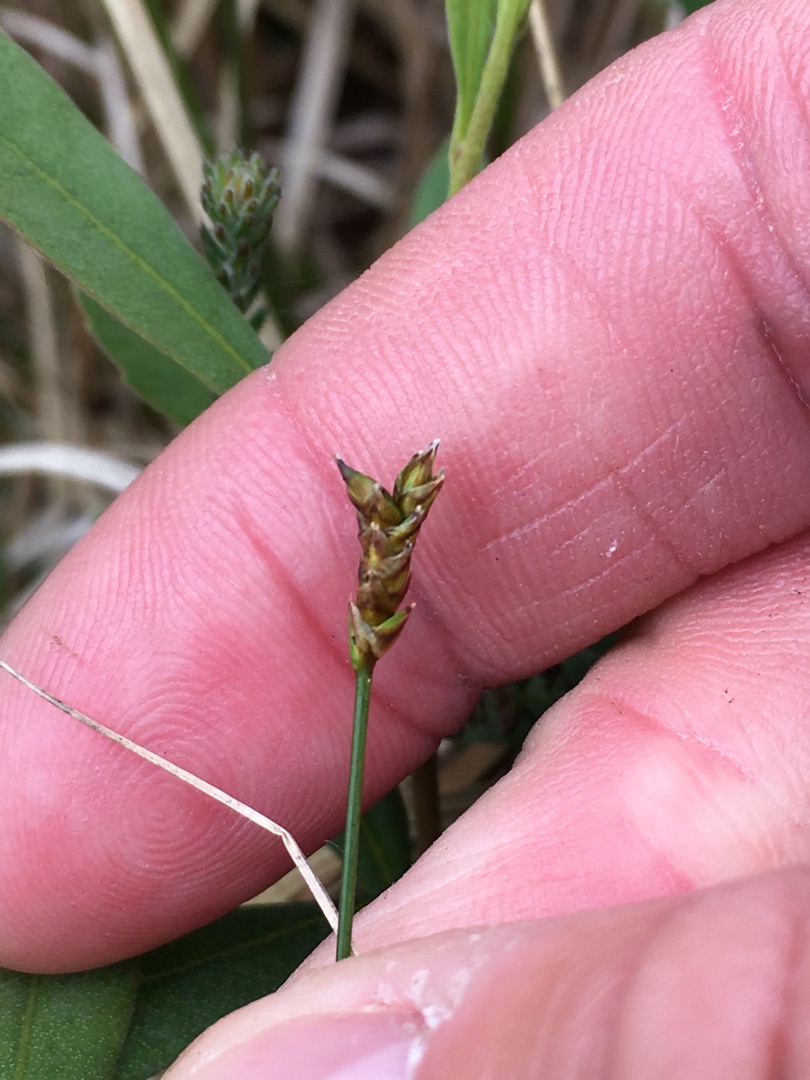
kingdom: Plantae
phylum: Tracheophyta
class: Liliopsida
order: Poales
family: Cyperaceae
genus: Carex
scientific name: Carex dioica
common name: Tvebo star
